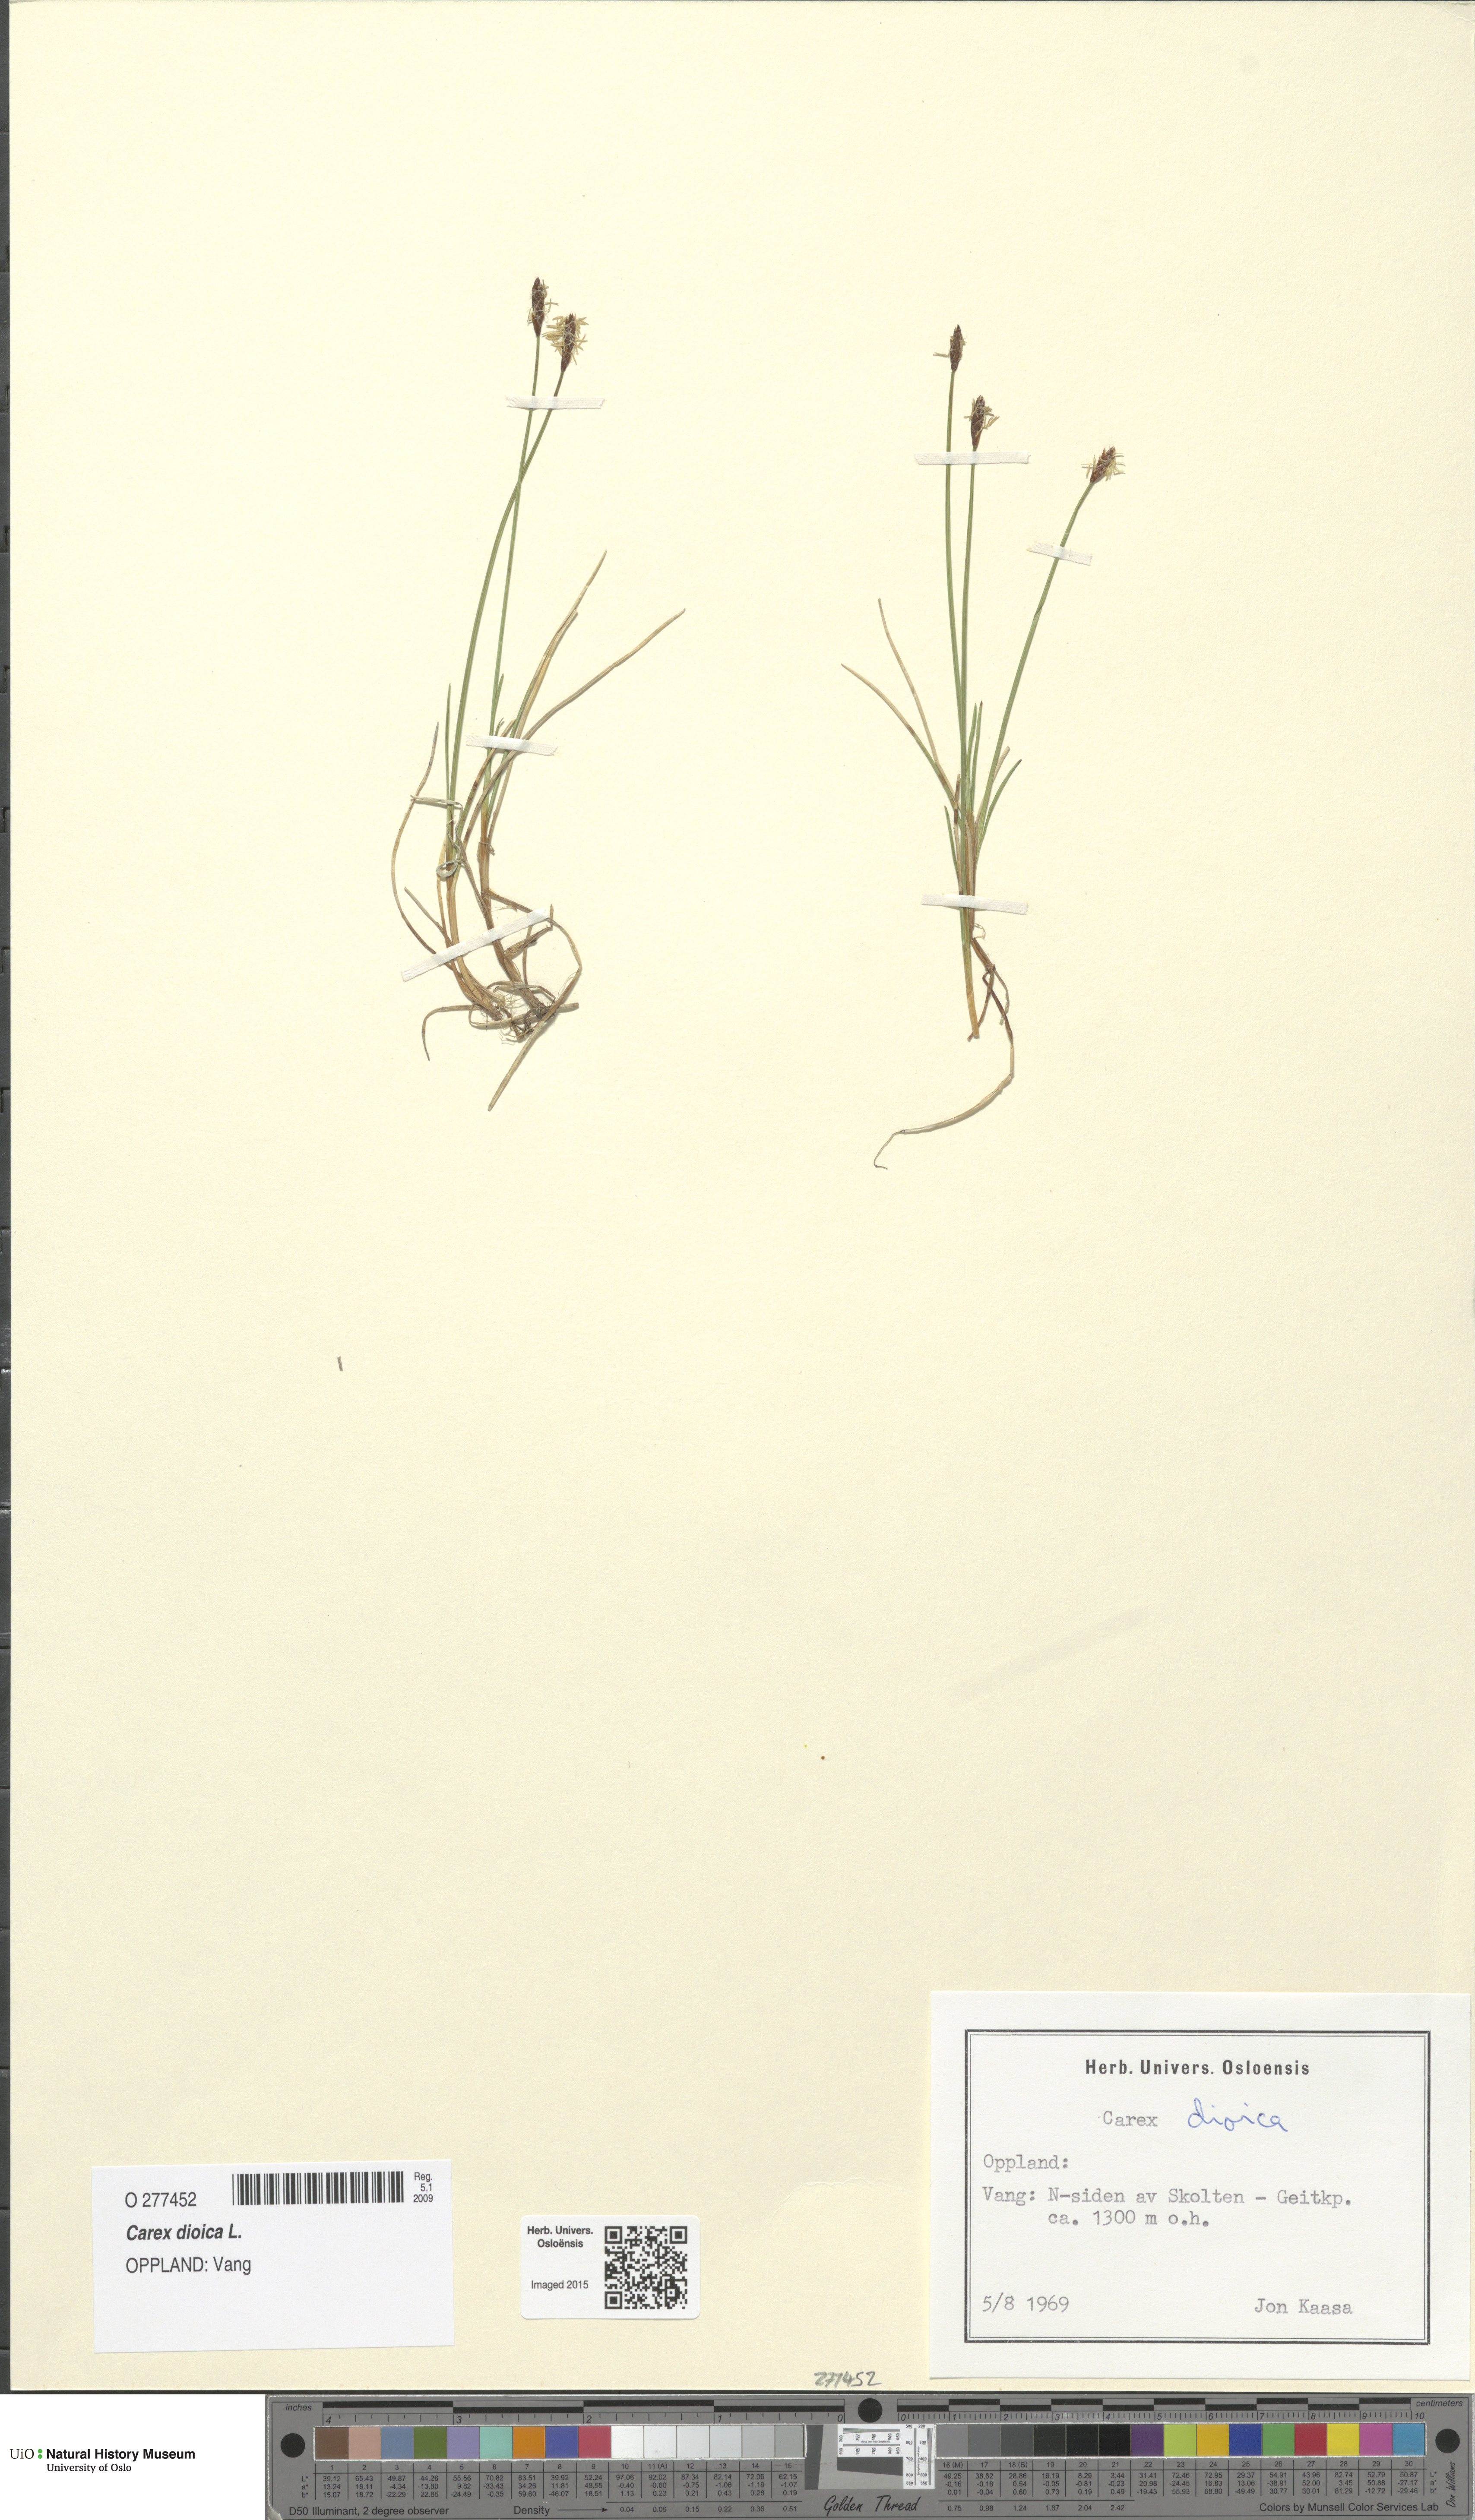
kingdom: Plantae
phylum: Tracheophyta
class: Liliopsida
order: Poales
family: Cyperaceae
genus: Carex
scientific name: Carex dioica
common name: Dioecious sedge
